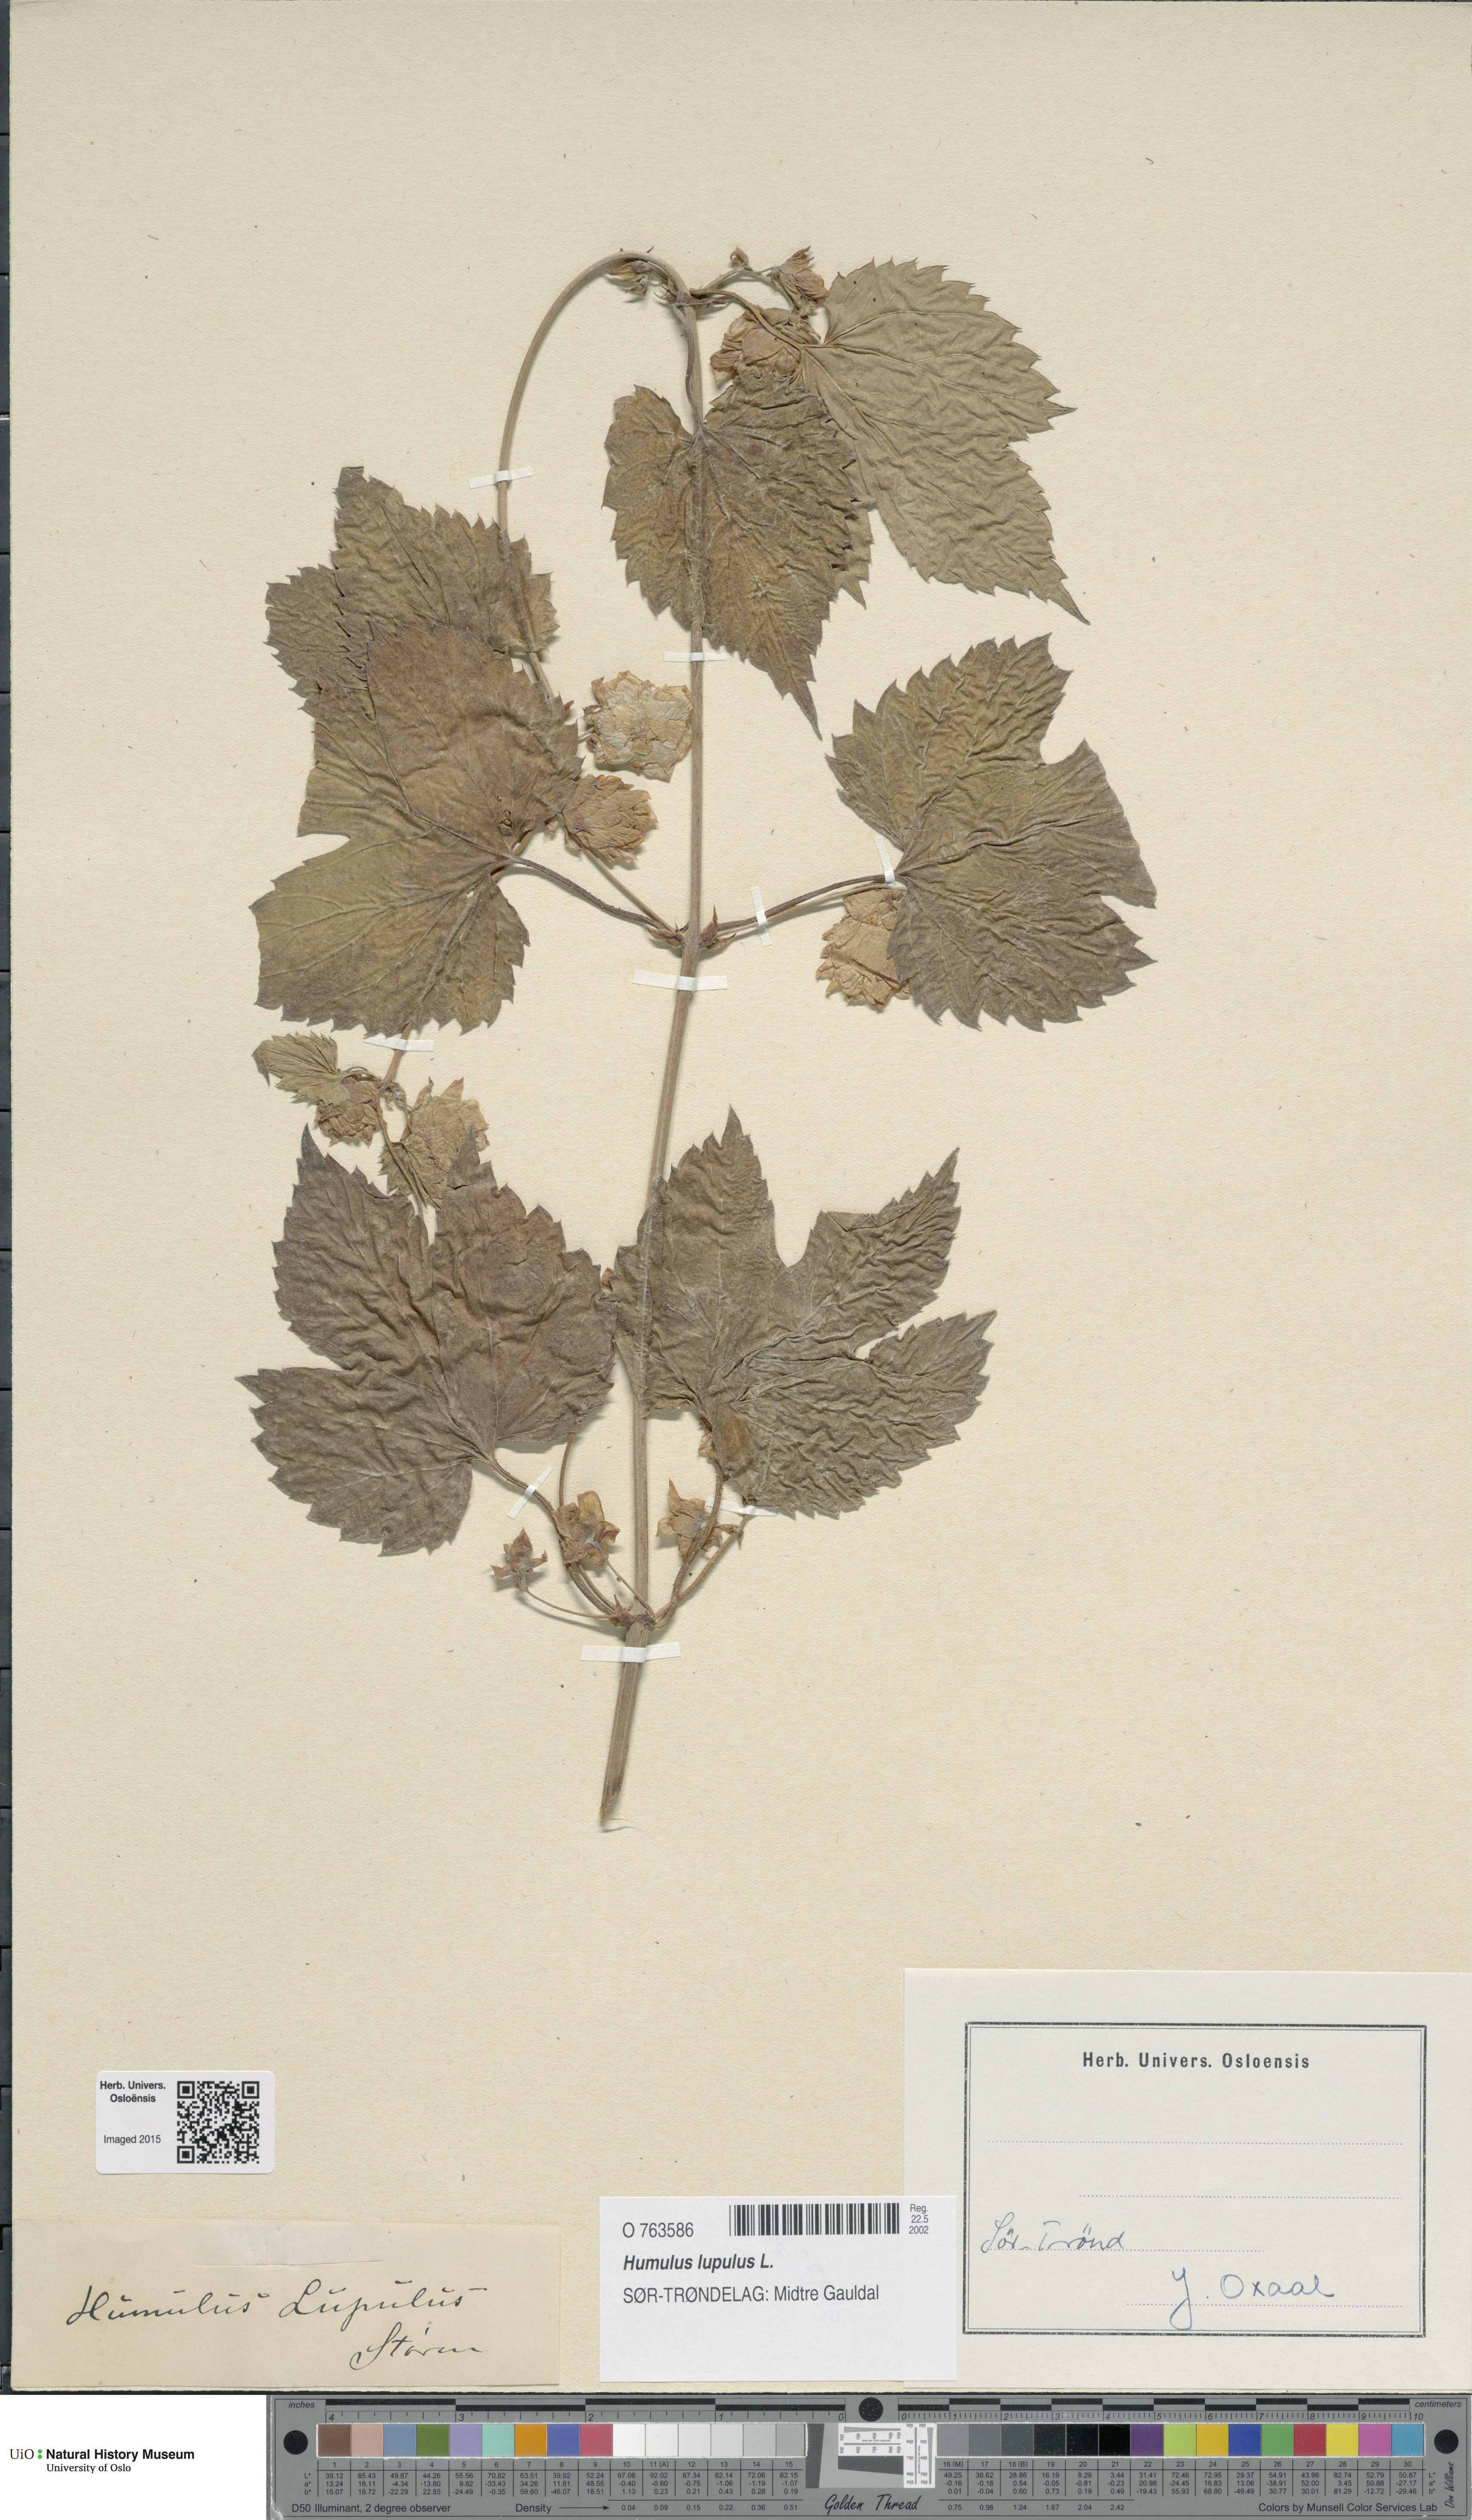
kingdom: Plantae
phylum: Tracheophyta
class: Magnoliopsida
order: Rosales
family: Cannabaceae
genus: Humulus
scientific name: Humulus lupulus
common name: Hop
